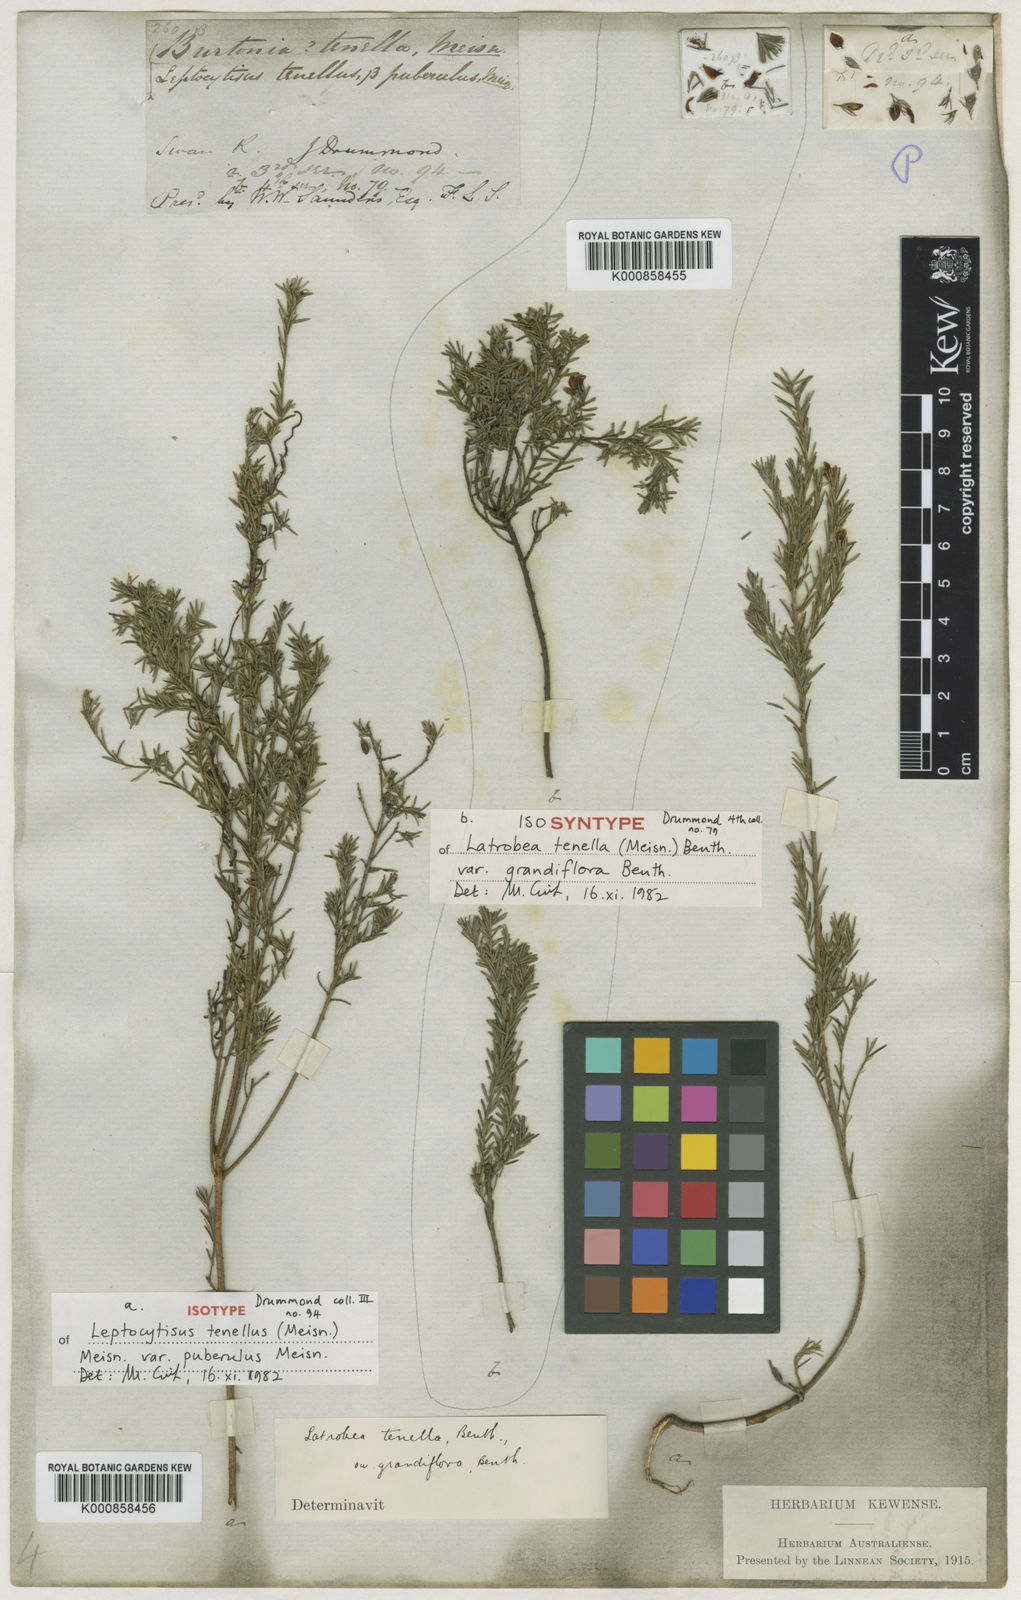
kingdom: Plantae
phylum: Tracheophyta
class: Magnoliopsida
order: Fabales
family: Fabaceae
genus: Latrobea
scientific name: Latrobea tenella
